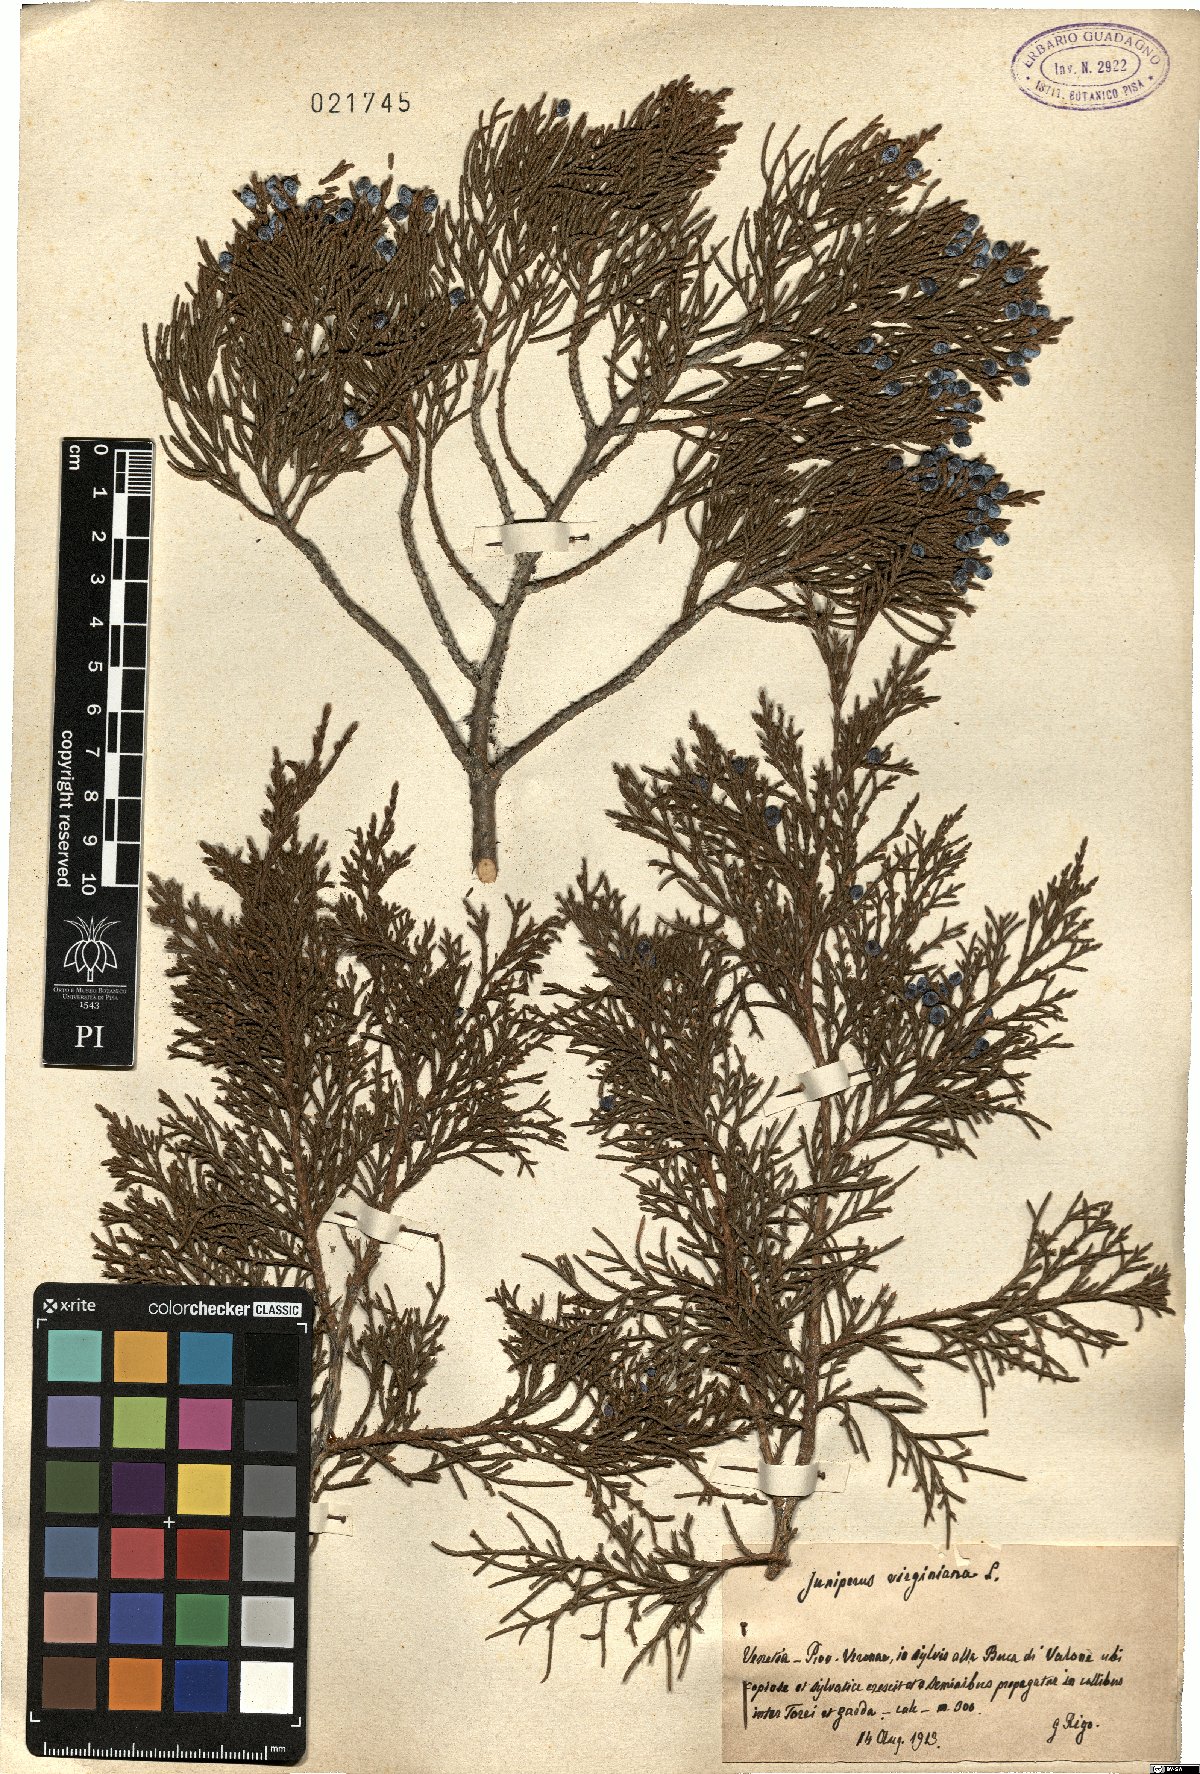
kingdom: Plantae
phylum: Tracheophyta
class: Pinopsida
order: Pinales
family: Cupressaceae
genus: Juniperus
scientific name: Juniperus virginiana
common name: Red juniper
